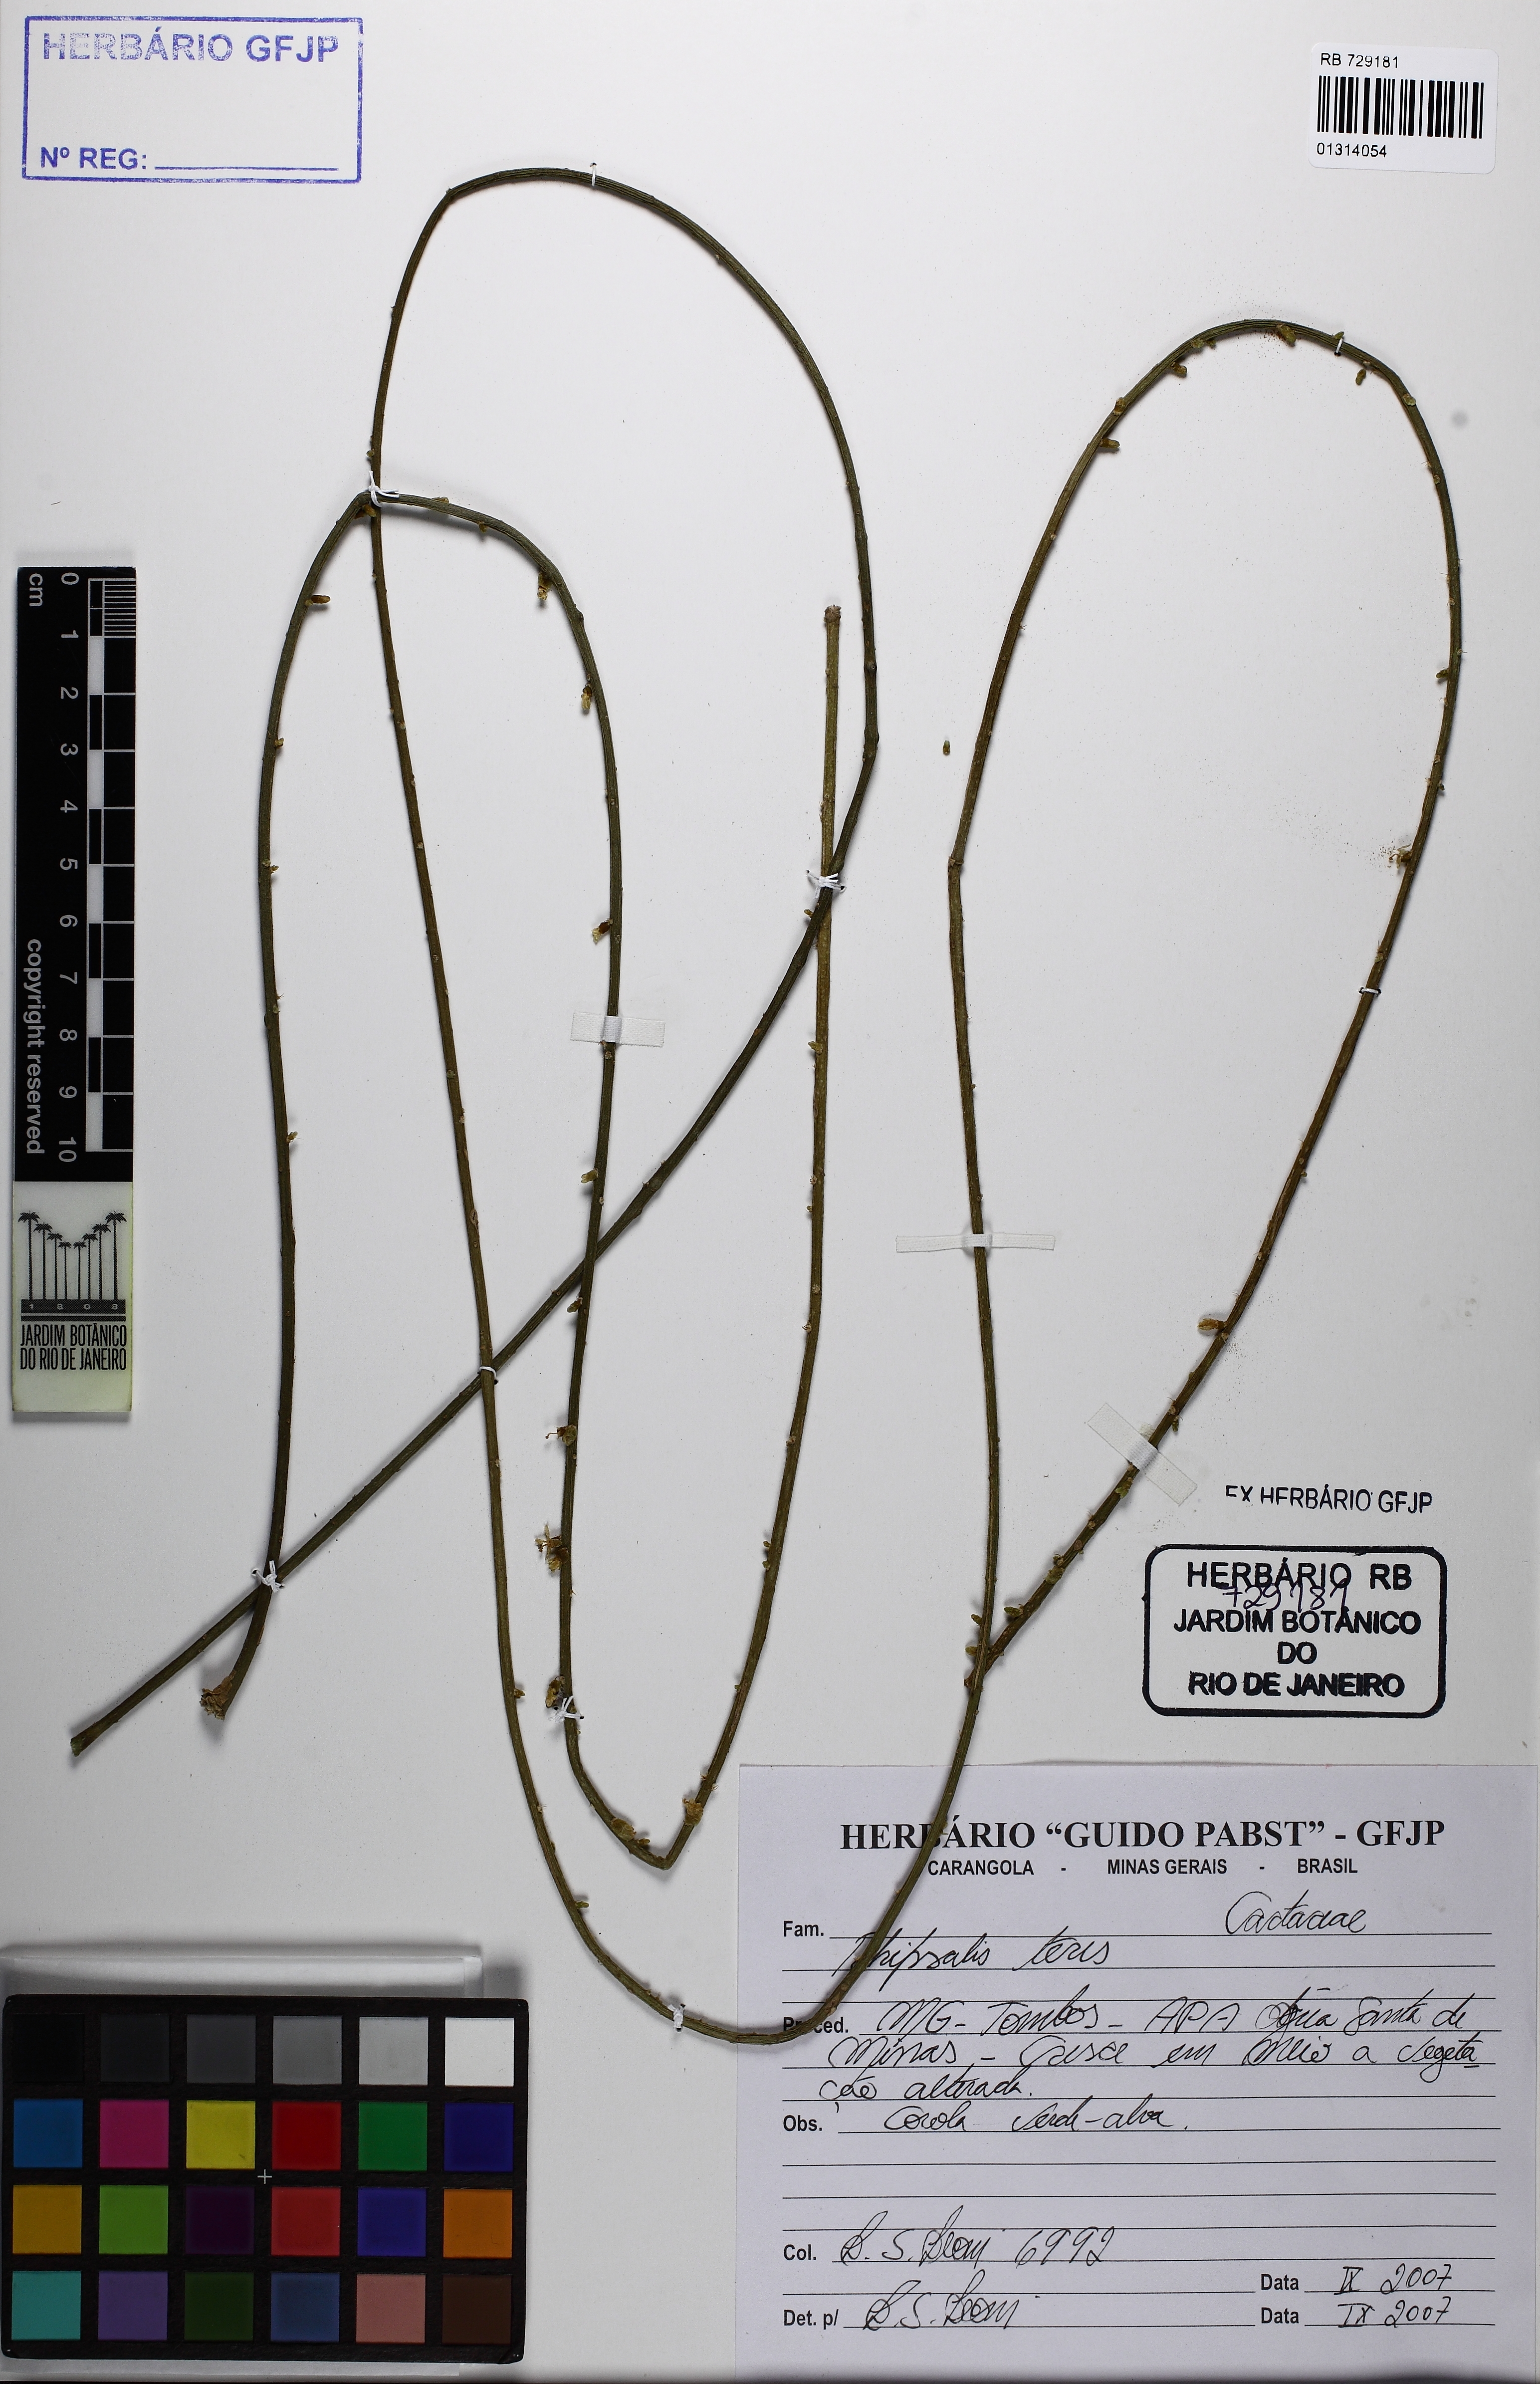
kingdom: Plantae
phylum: Tracheophyta
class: Magnoliopsida
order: Caryophyllales
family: Cactaceae
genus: Rhipsalis
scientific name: Rhipsalis lindbergiana
